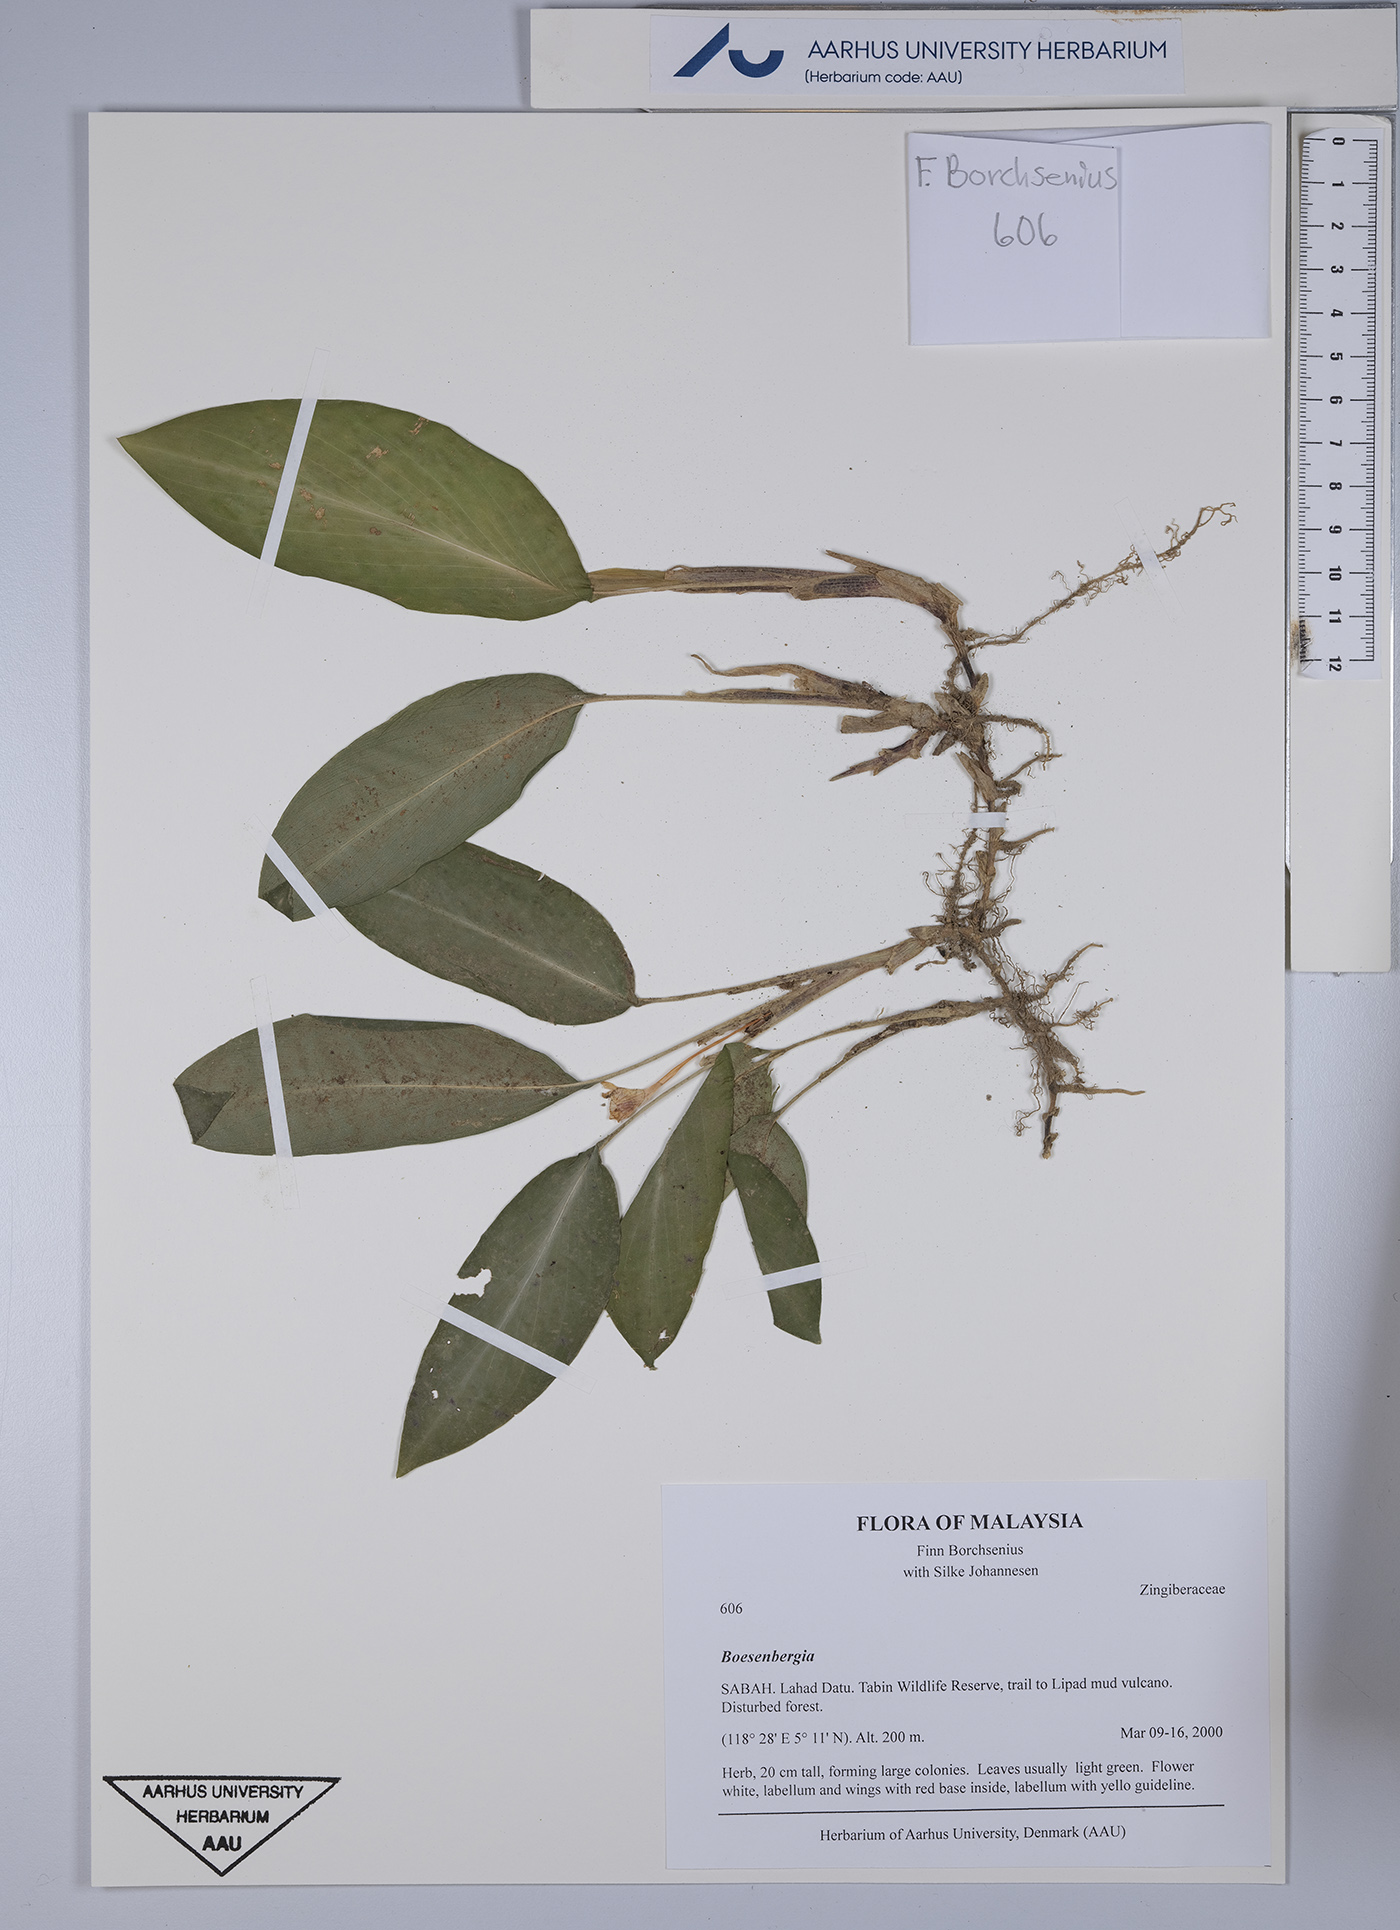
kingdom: Plantae
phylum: Tracheophyta
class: Liliopsida
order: Zingiberales
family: Zingiberaceae
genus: Boesenbergia
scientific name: Boesenbergia
